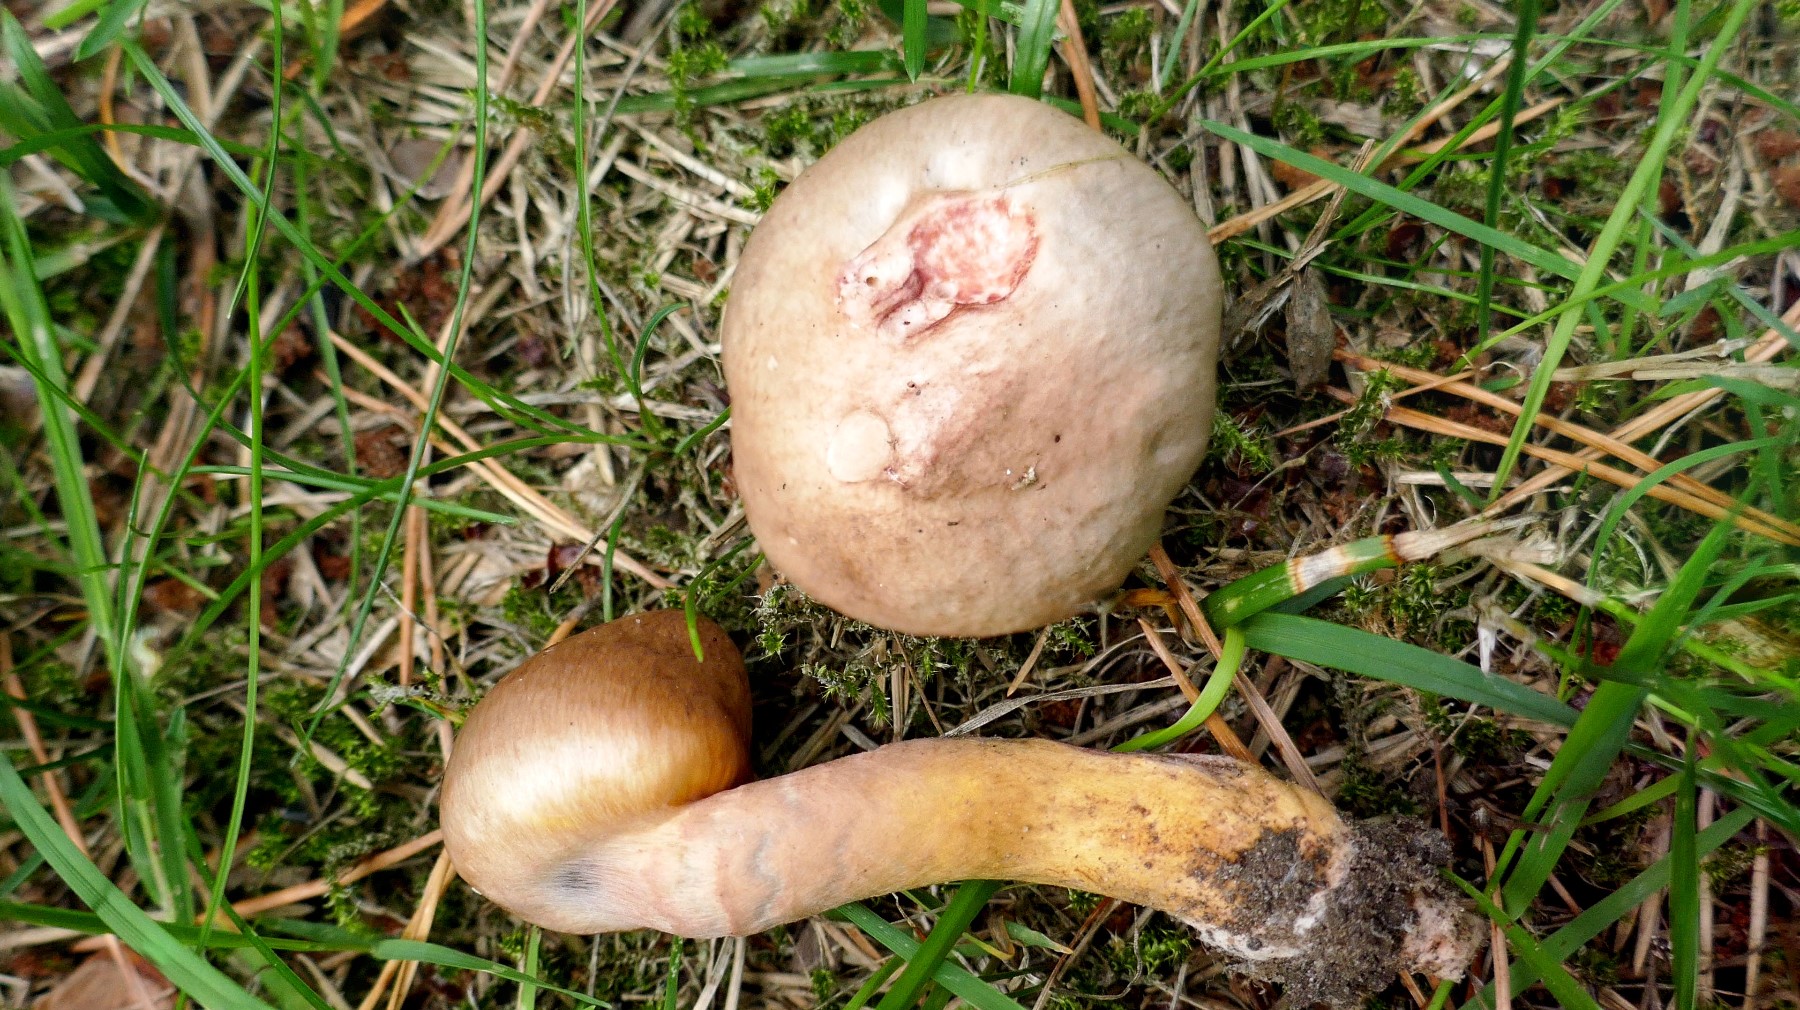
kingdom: Fungi
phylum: Basidiomycota
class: Agaricomycetes
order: Boletales
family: Gomphidiaceae
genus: Chroogomphus
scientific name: Chroogomphus rutilus
